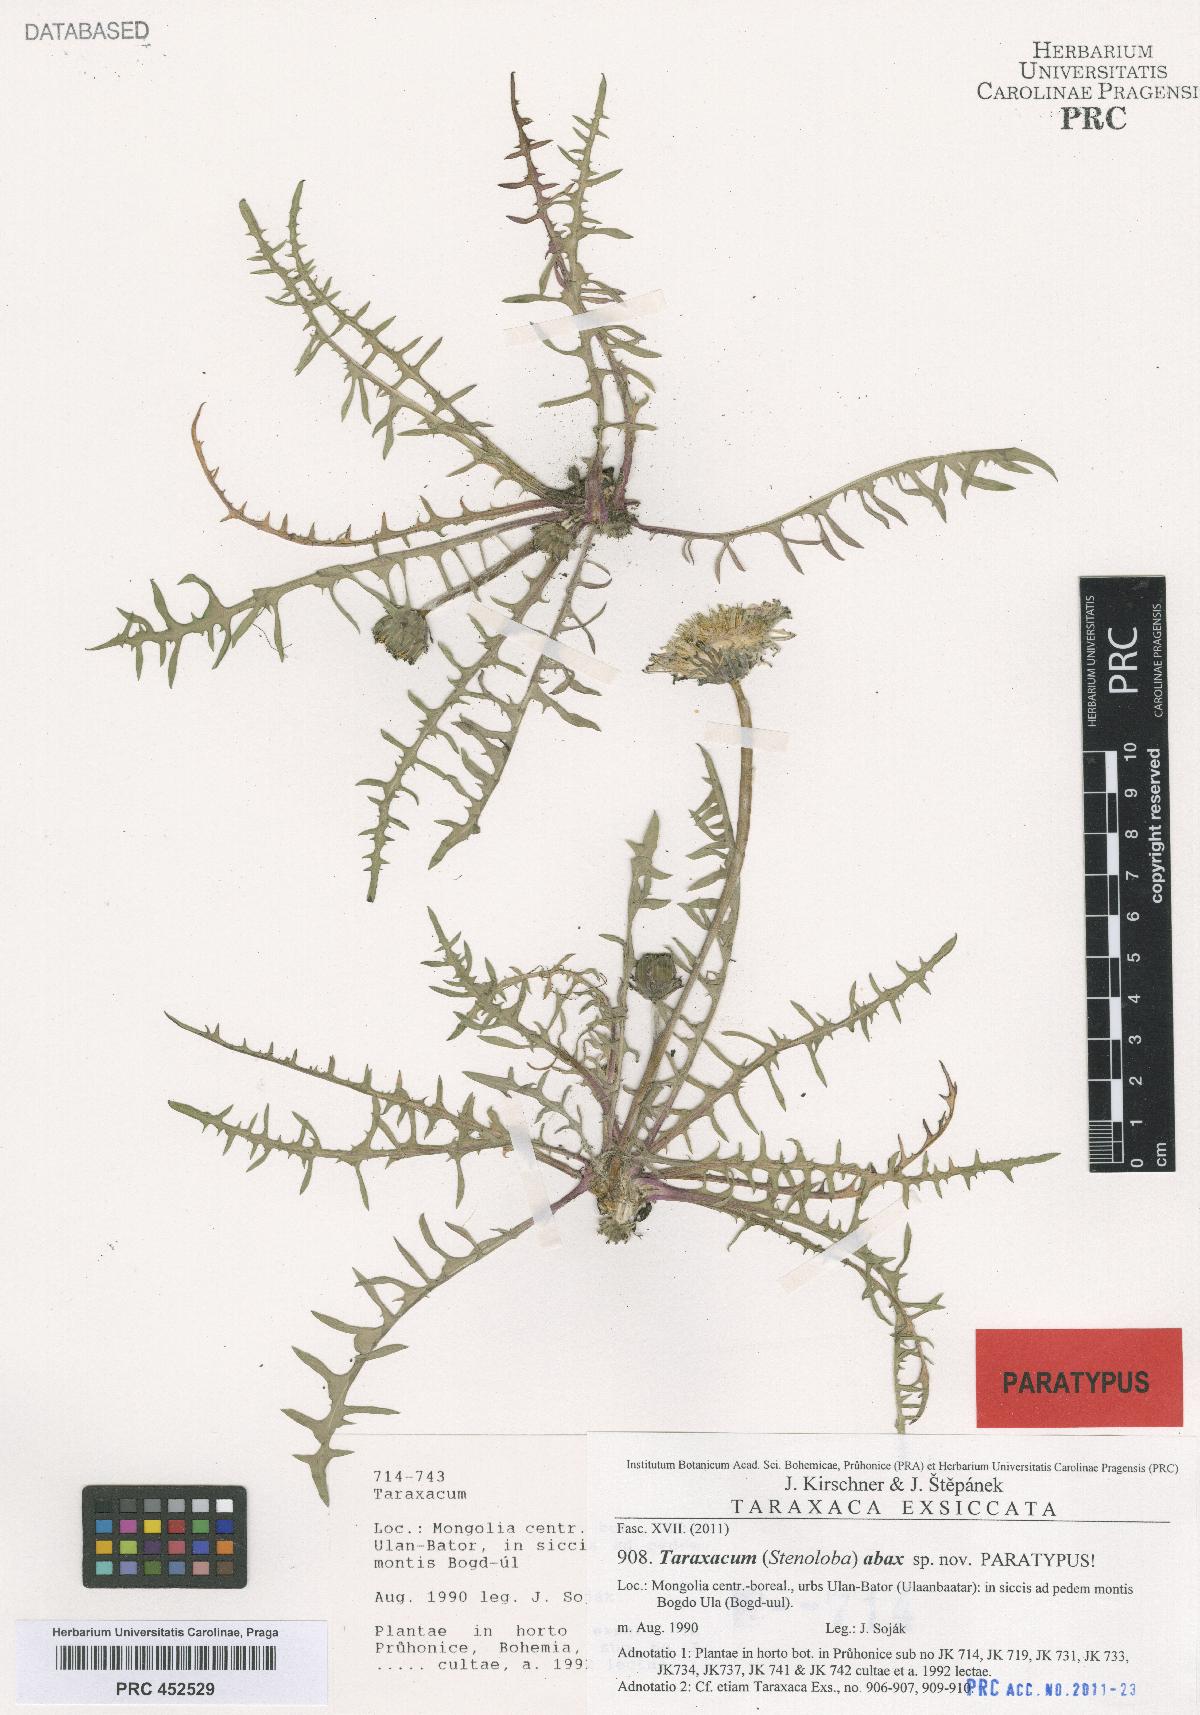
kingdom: Plantae
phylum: Tracheophyta
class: Magnoliopsida
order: Asterales
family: Asteraceae
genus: Taraxacum
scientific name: Taraxacum abax
